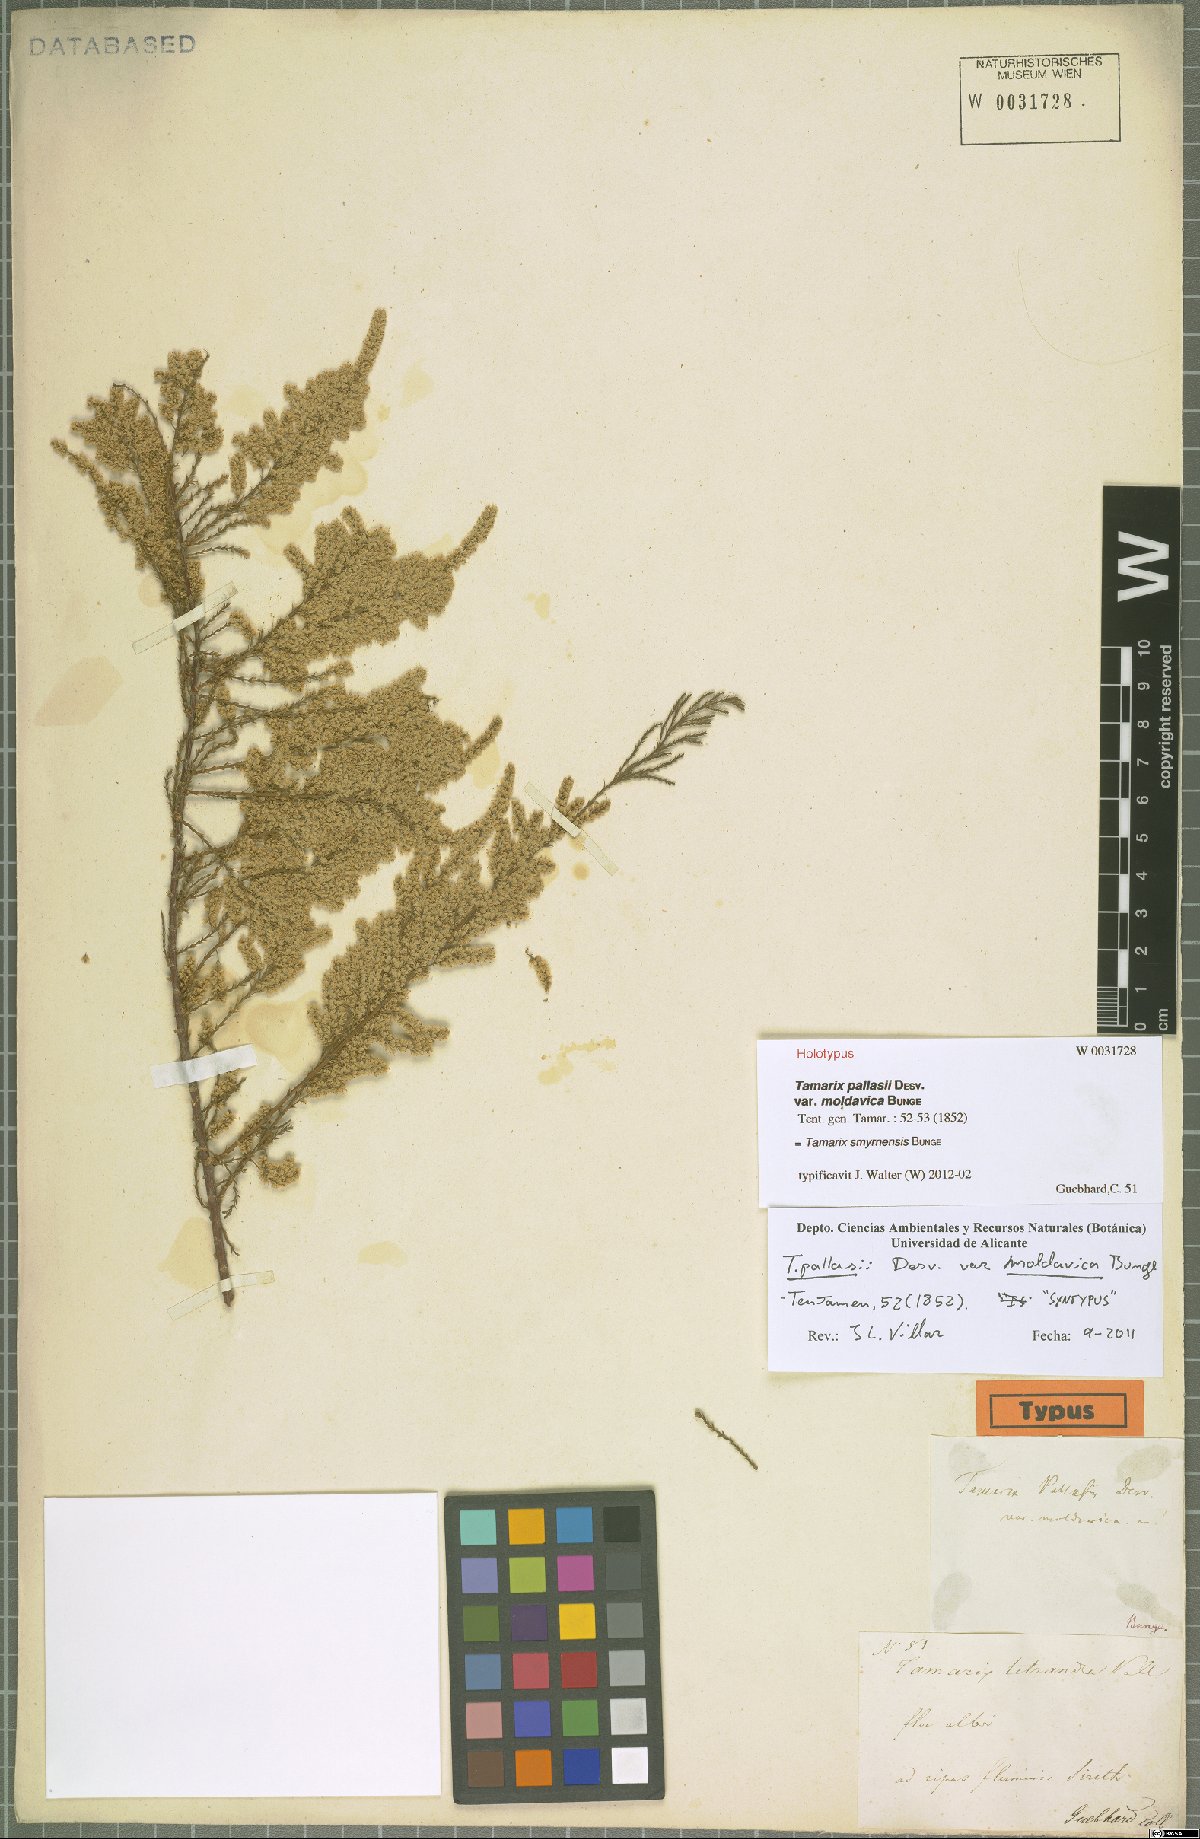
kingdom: Plantae
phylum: Tracheophyta
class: Magnoliopsida
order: Caryophyllales
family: Tamaricaceae
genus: Tamarix
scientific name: Tamarix smyrnensis
